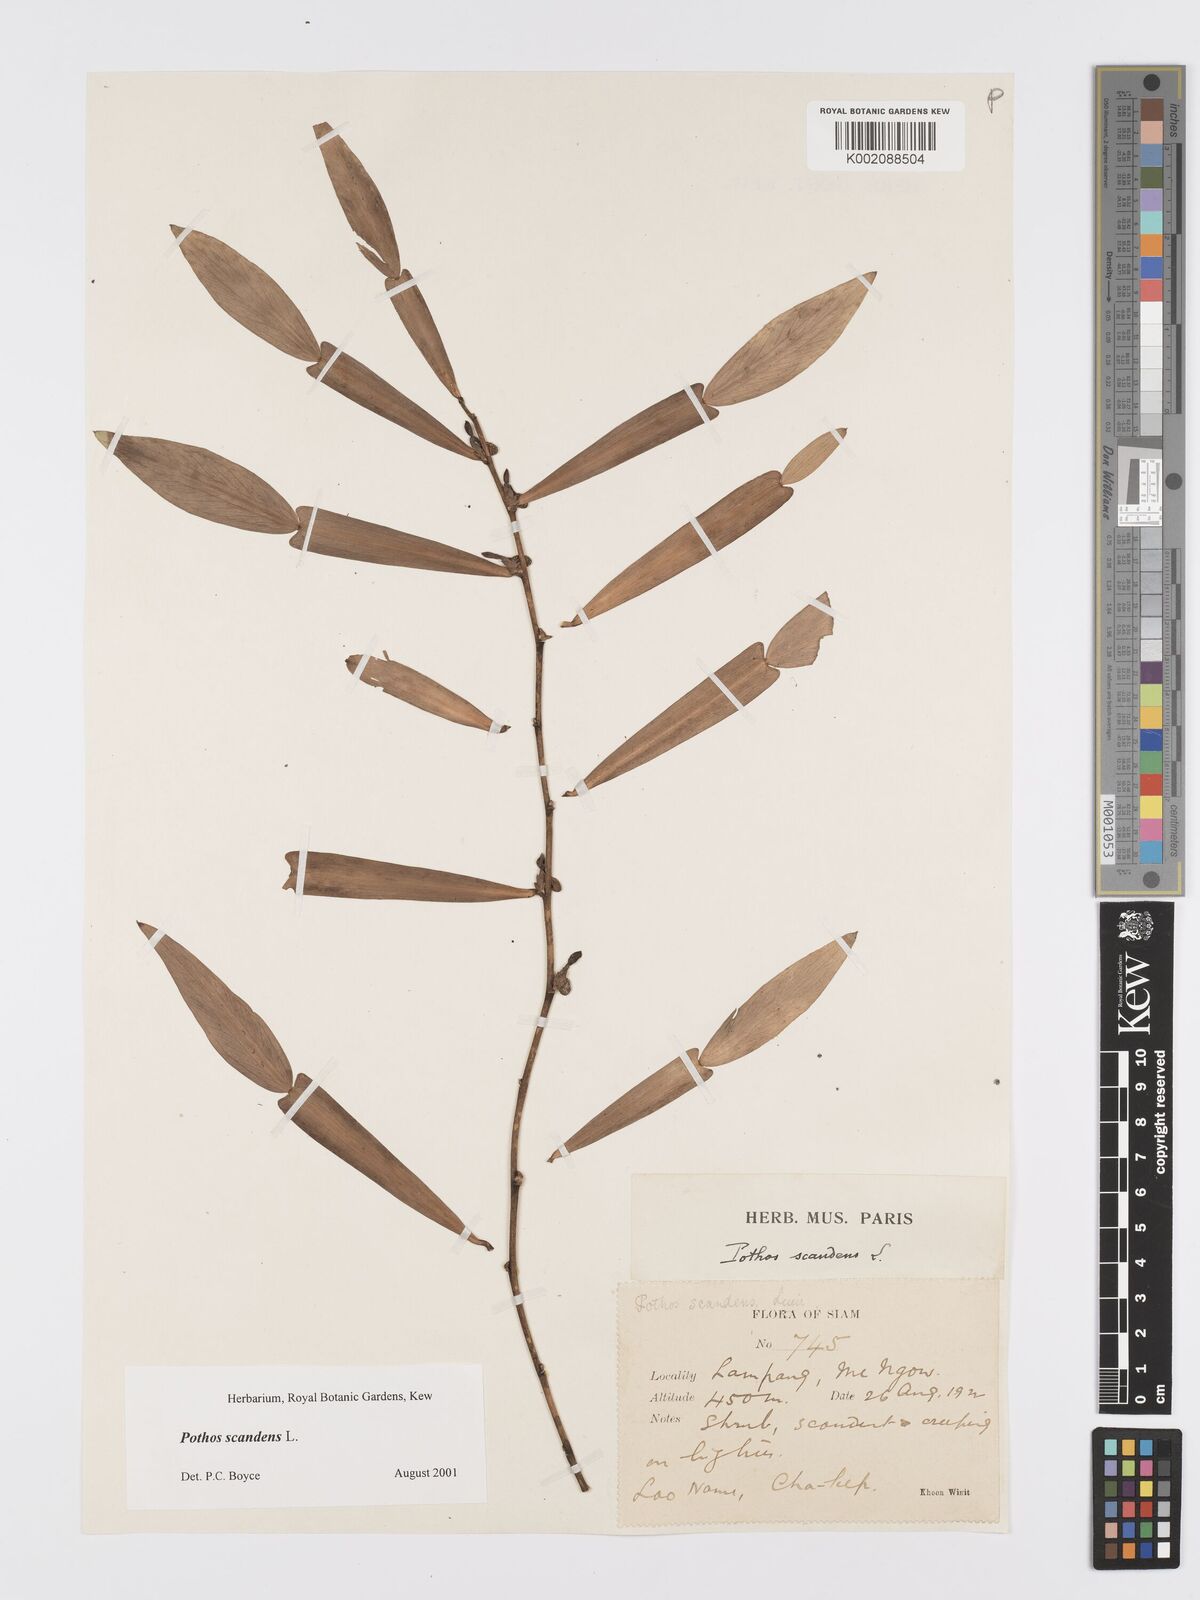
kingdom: Plantae
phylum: Tracheophyta
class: Liliopsida
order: Alismatales
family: Araceae
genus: Pothos
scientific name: Pothos scandens
